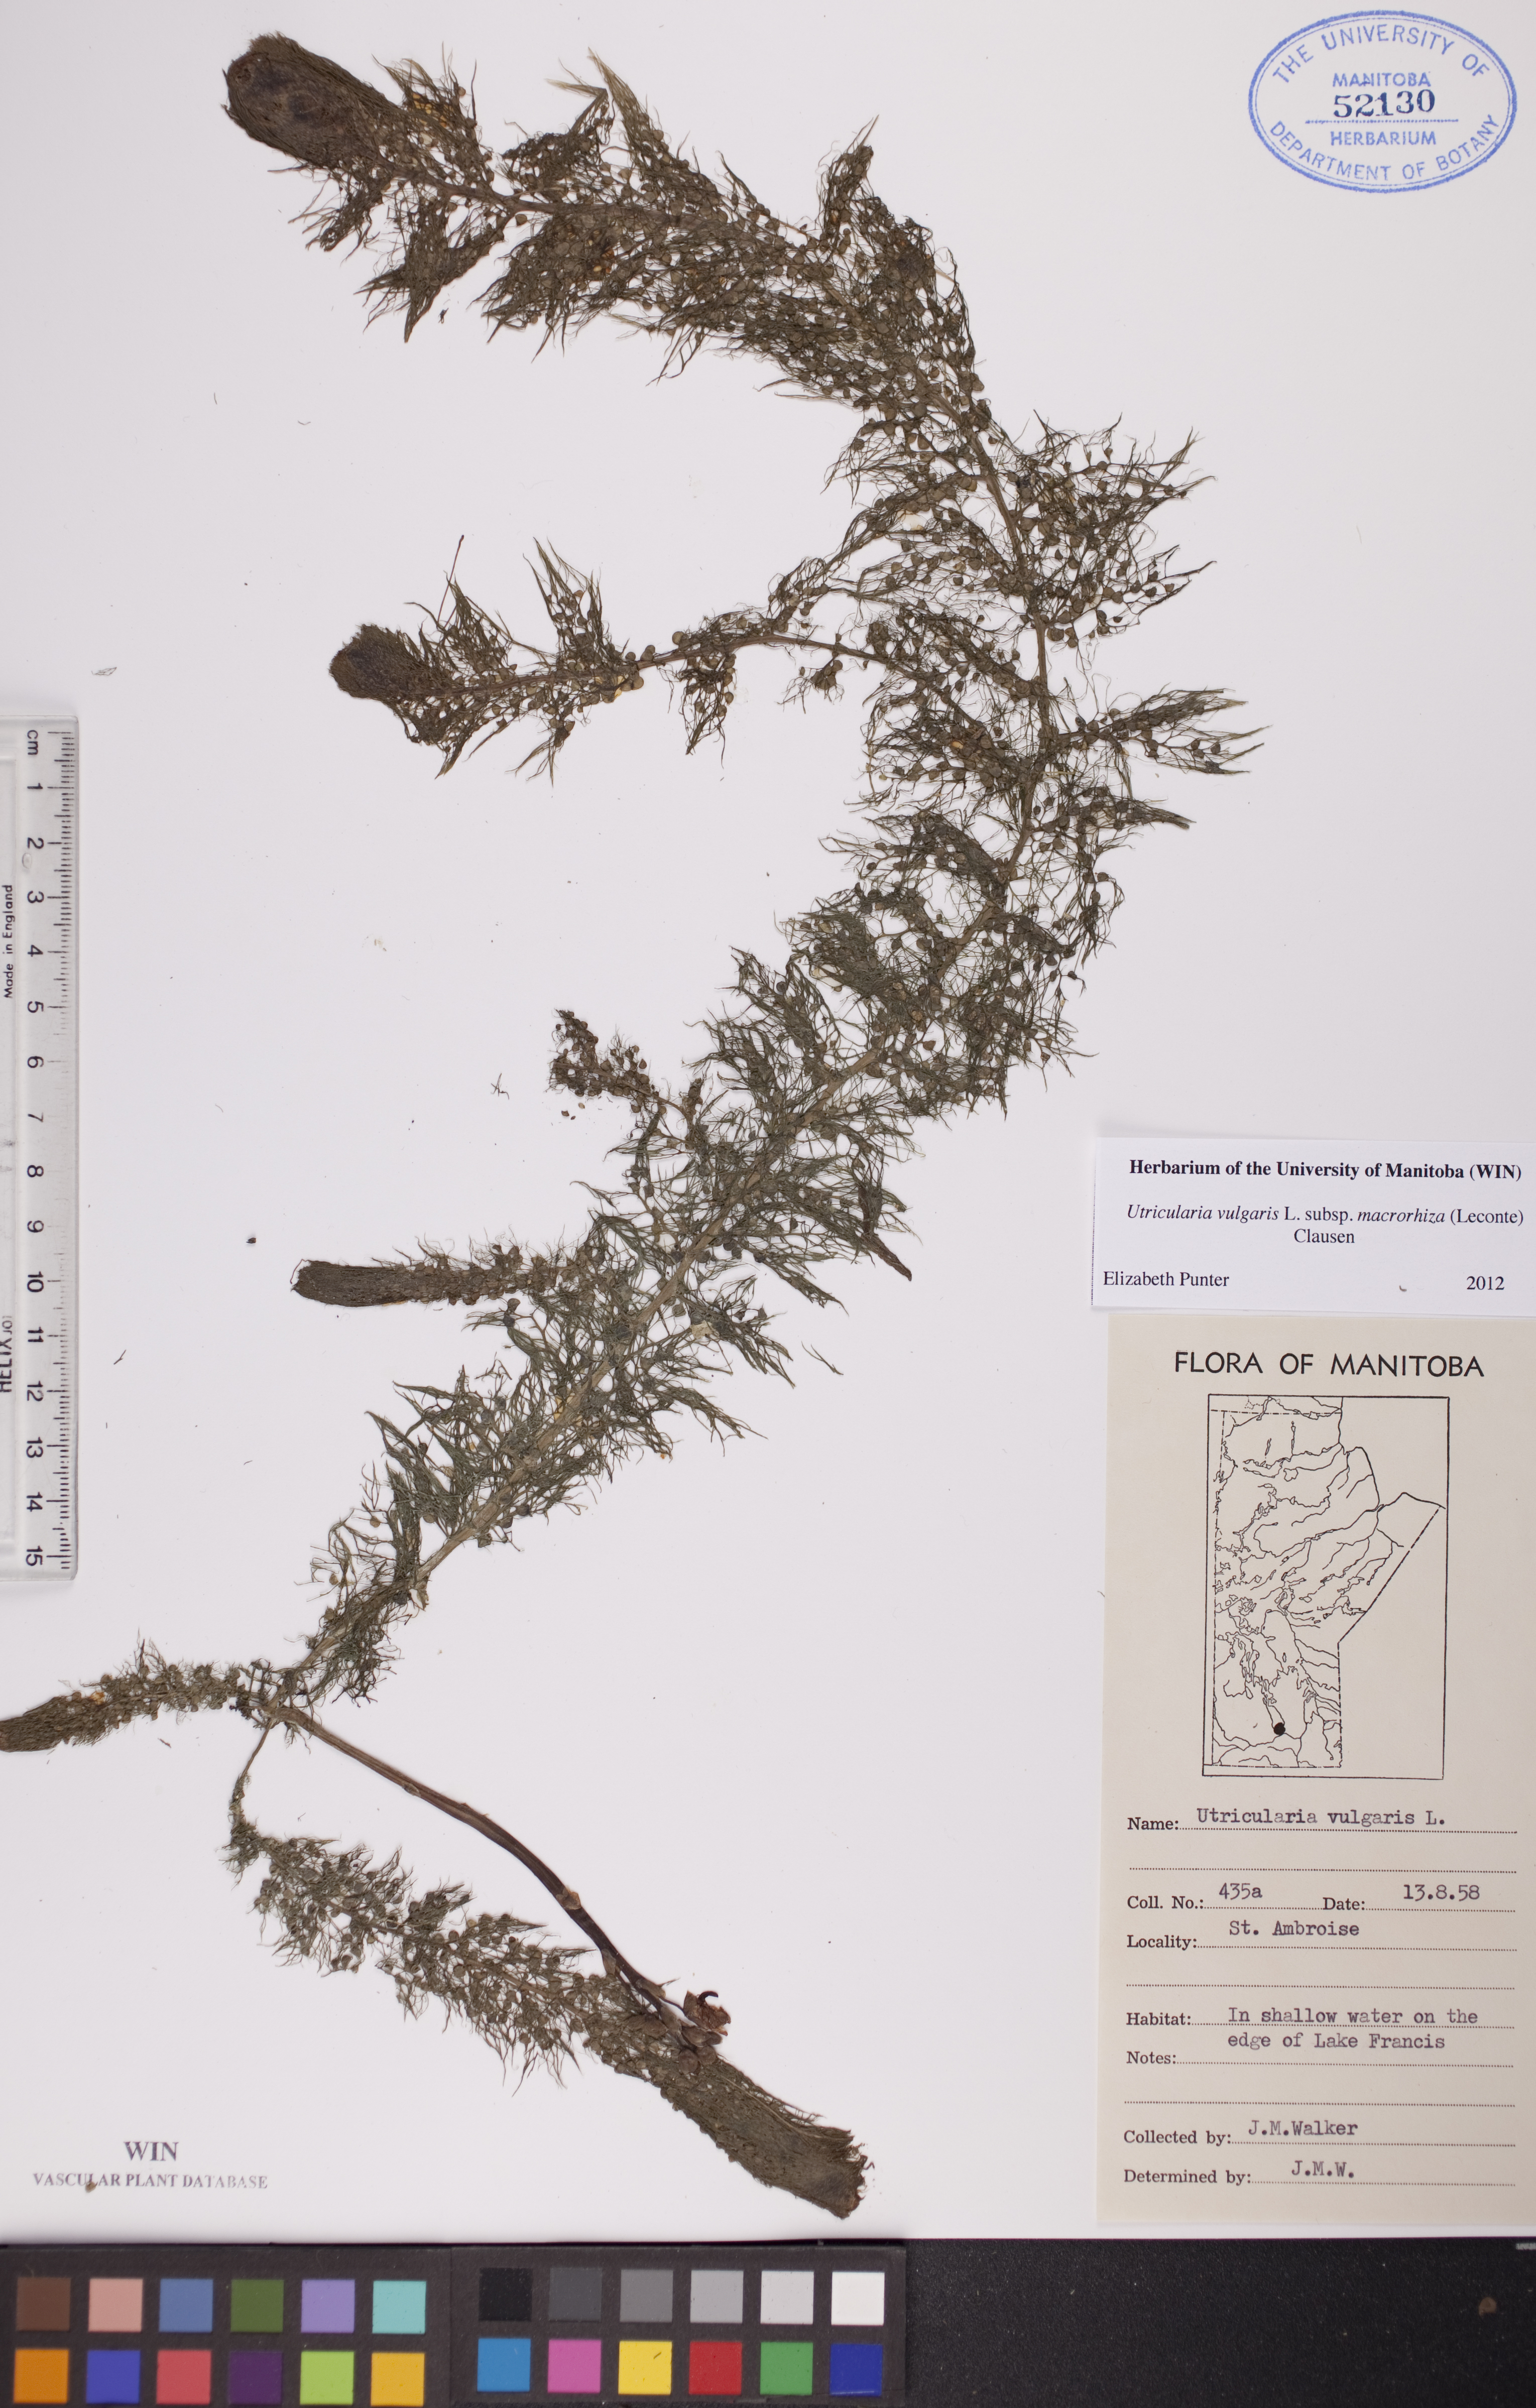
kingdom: Plantae
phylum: Tracheophyta
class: Magnoliopsida
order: Lamiales
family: Lentibulariaceae
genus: Utricularia
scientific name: Utricularia macrorhiza
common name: Common bladderwort
